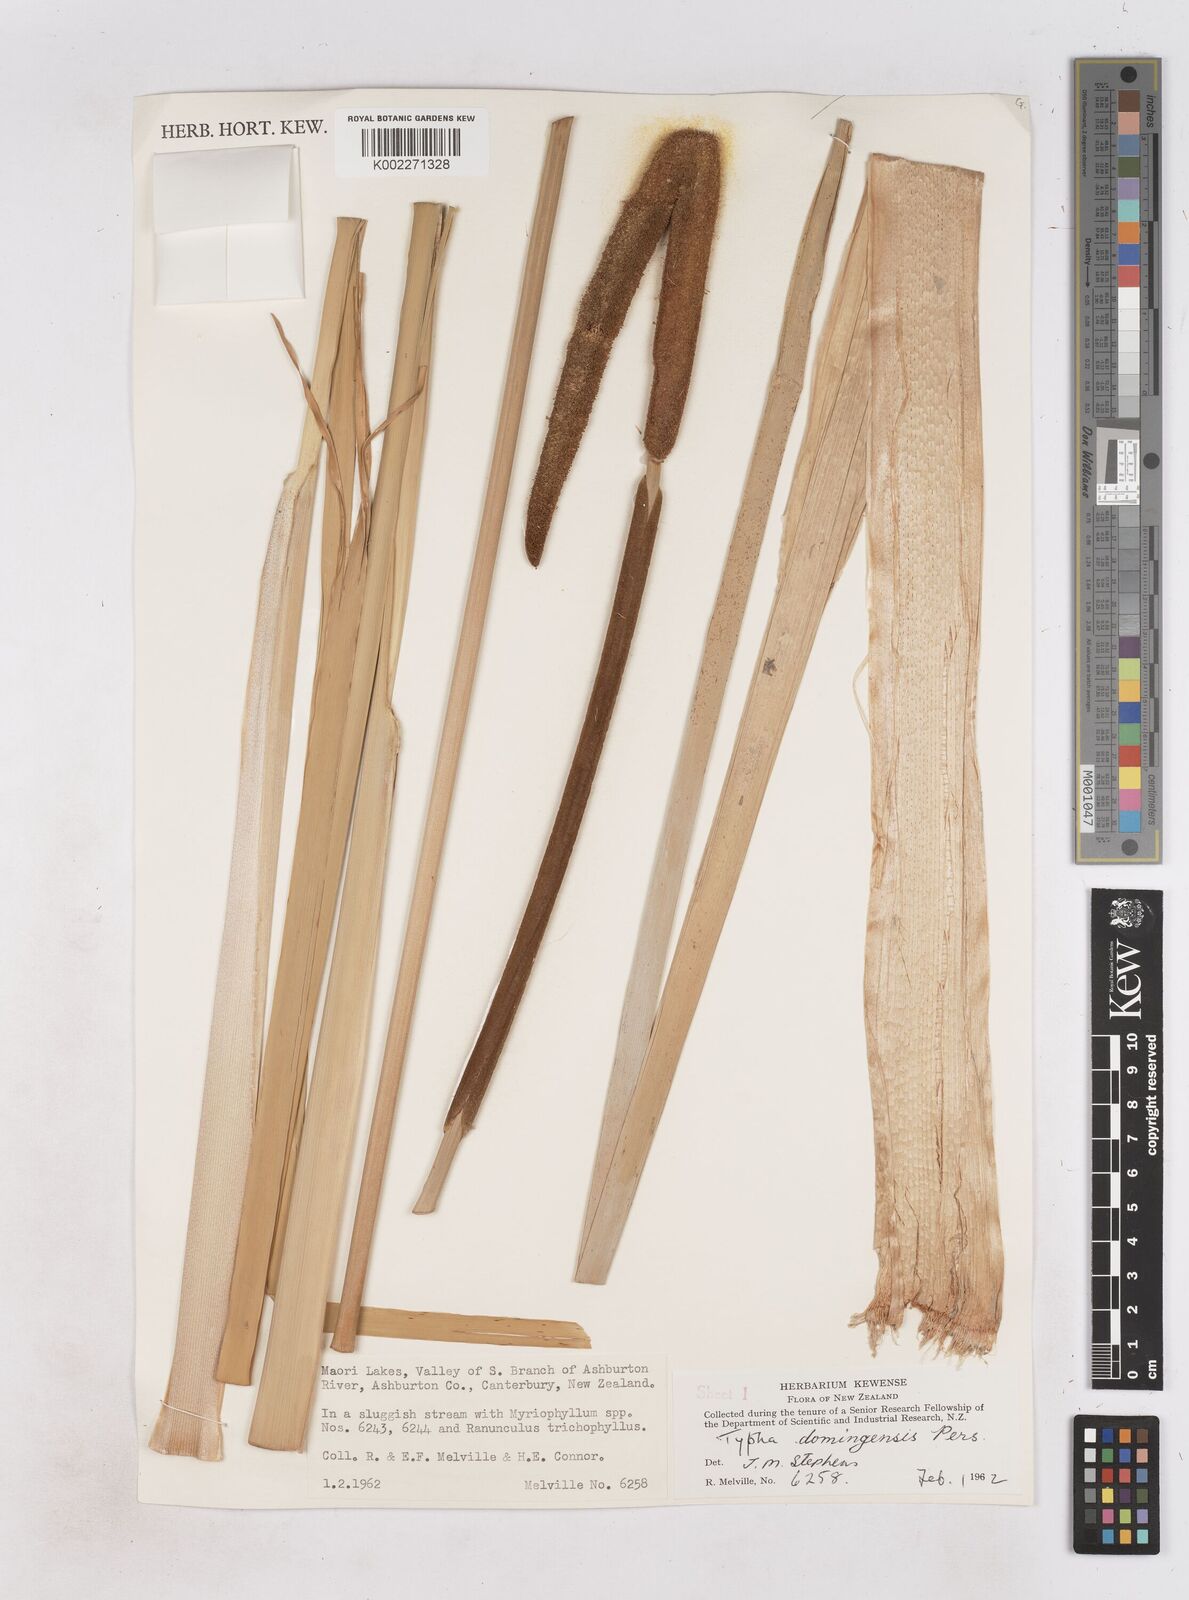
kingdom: Plantae
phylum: Tracheophyta
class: Liliopsida
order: Poales
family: Typhaceae
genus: Typha
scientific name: Typha domingensis
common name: Southern cattail
